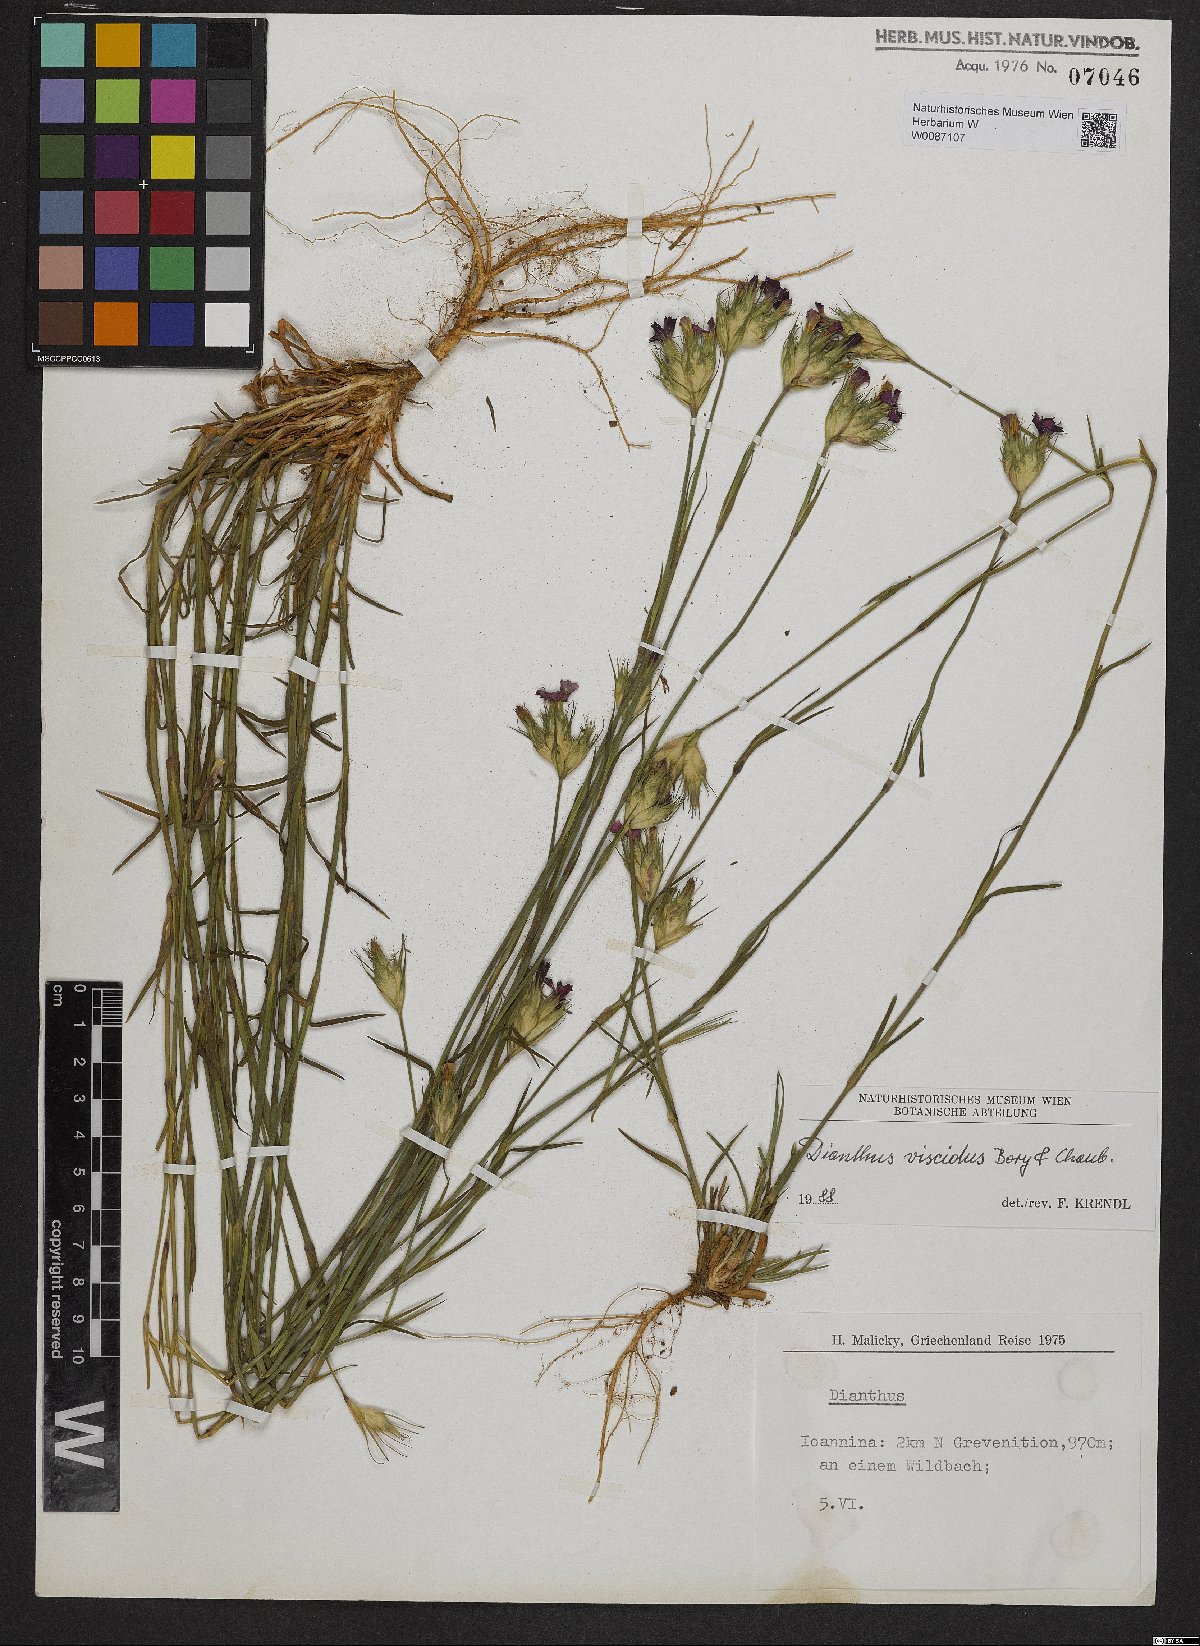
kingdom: Plantae
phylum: Tracheophyta
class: Magnoliopsida
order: Caryophyllales
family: Caryophyllaceae
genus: Dianthus
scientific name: Dianthus viscidus
